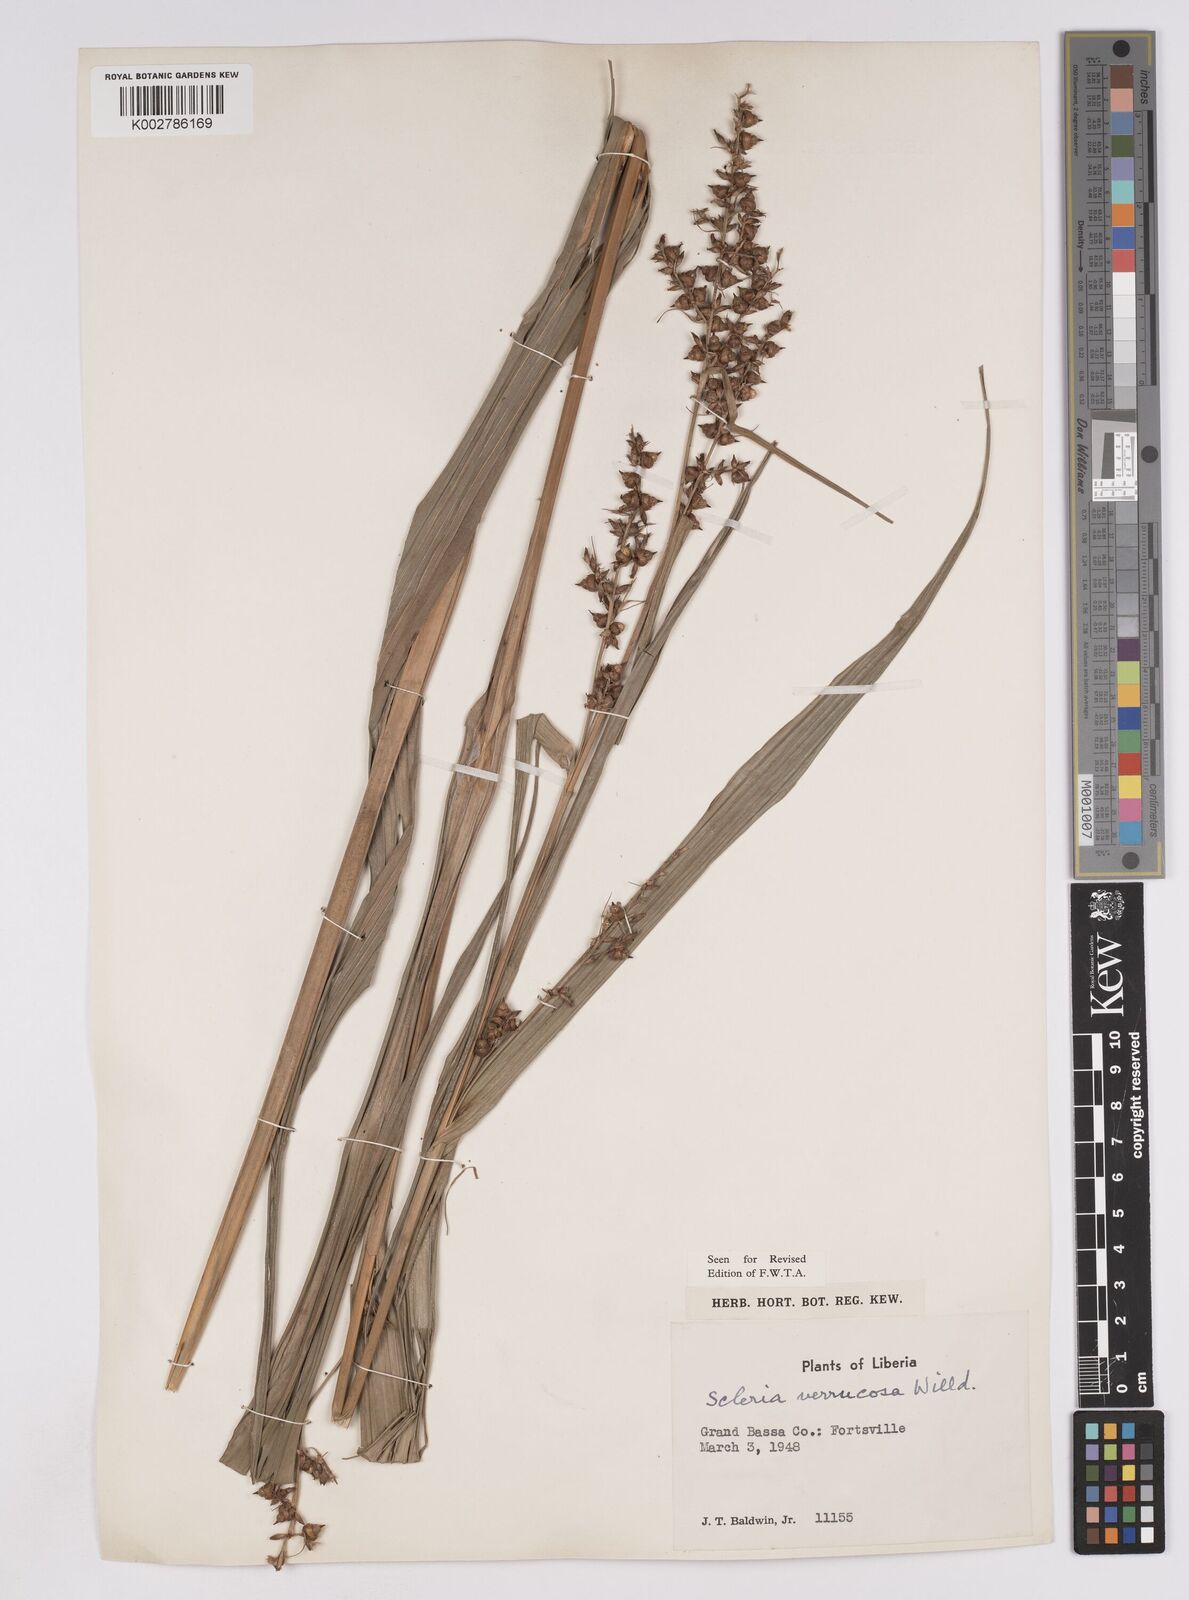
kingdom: Plantae
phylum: Tracheophyta
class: Liliopsida
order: Poales
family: Cyperaceae
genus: Scleria
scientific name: Scleria verrucosa
